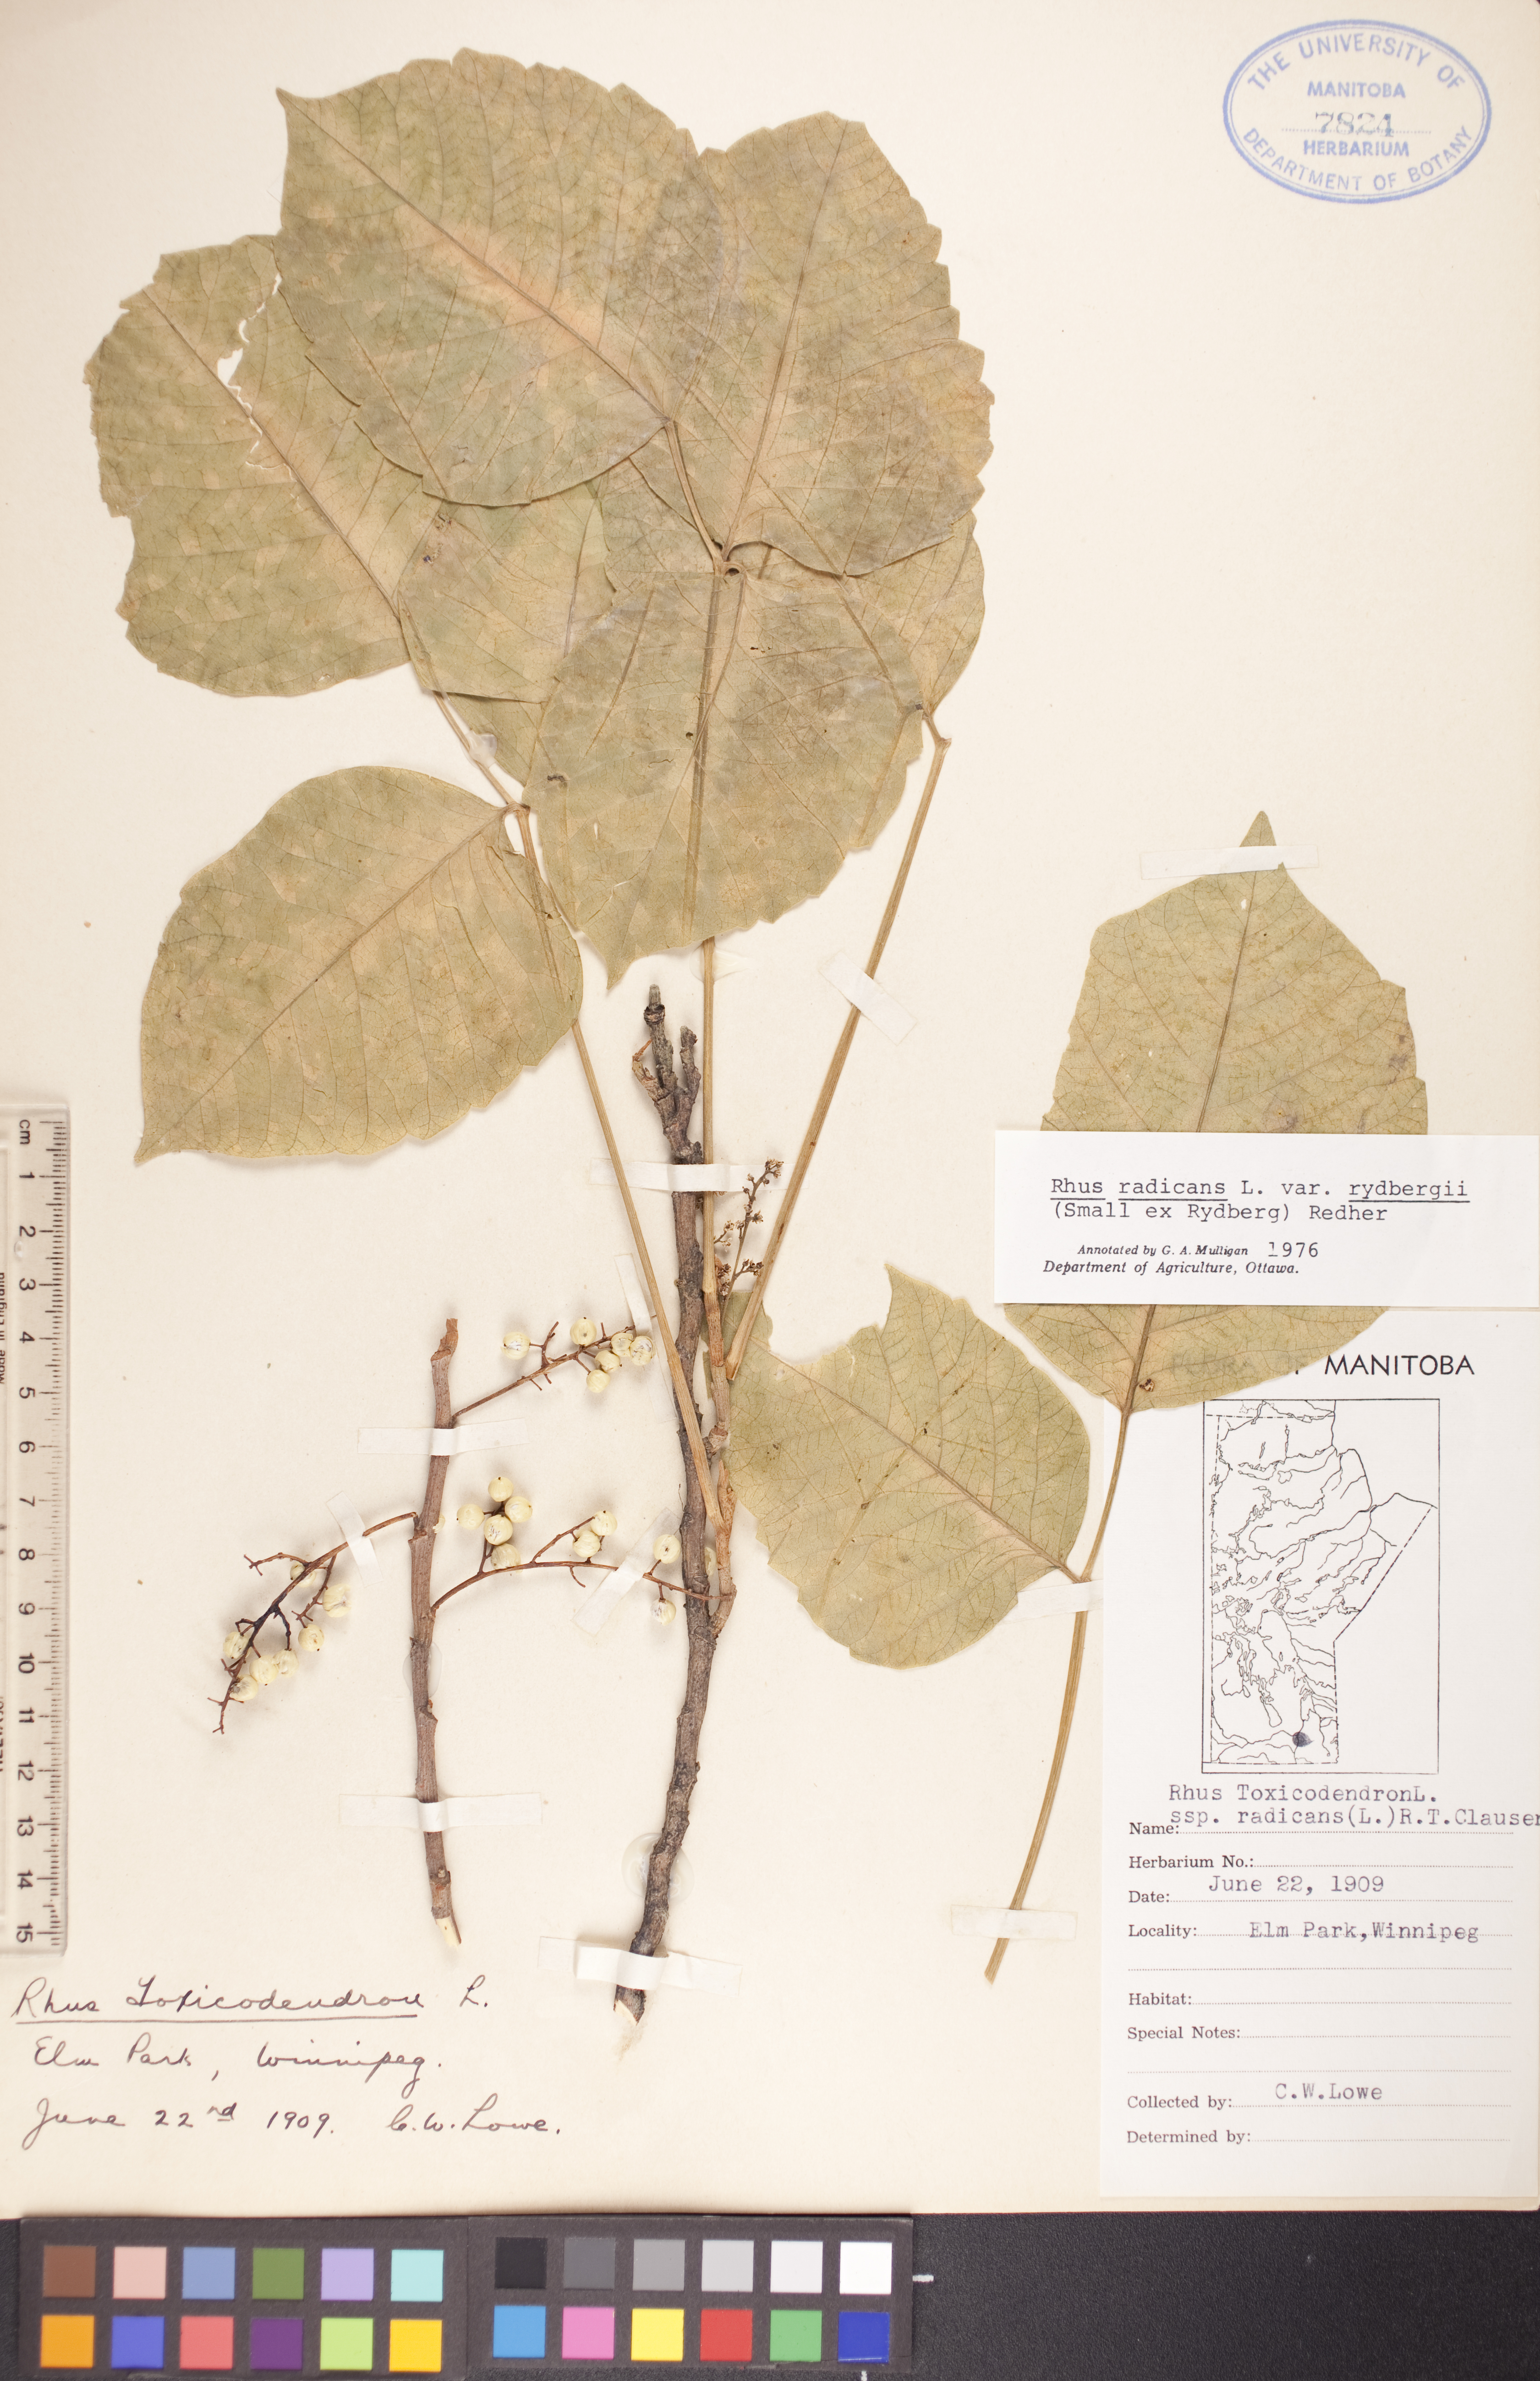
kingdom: Plantae
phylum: Tracheophyta
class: Magnoliopsida
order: Sapindales
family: Anacardiaceae
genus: Toxicodendron
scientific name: Toxicodendron rydbergii
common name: Rydberg's poison-ivy
